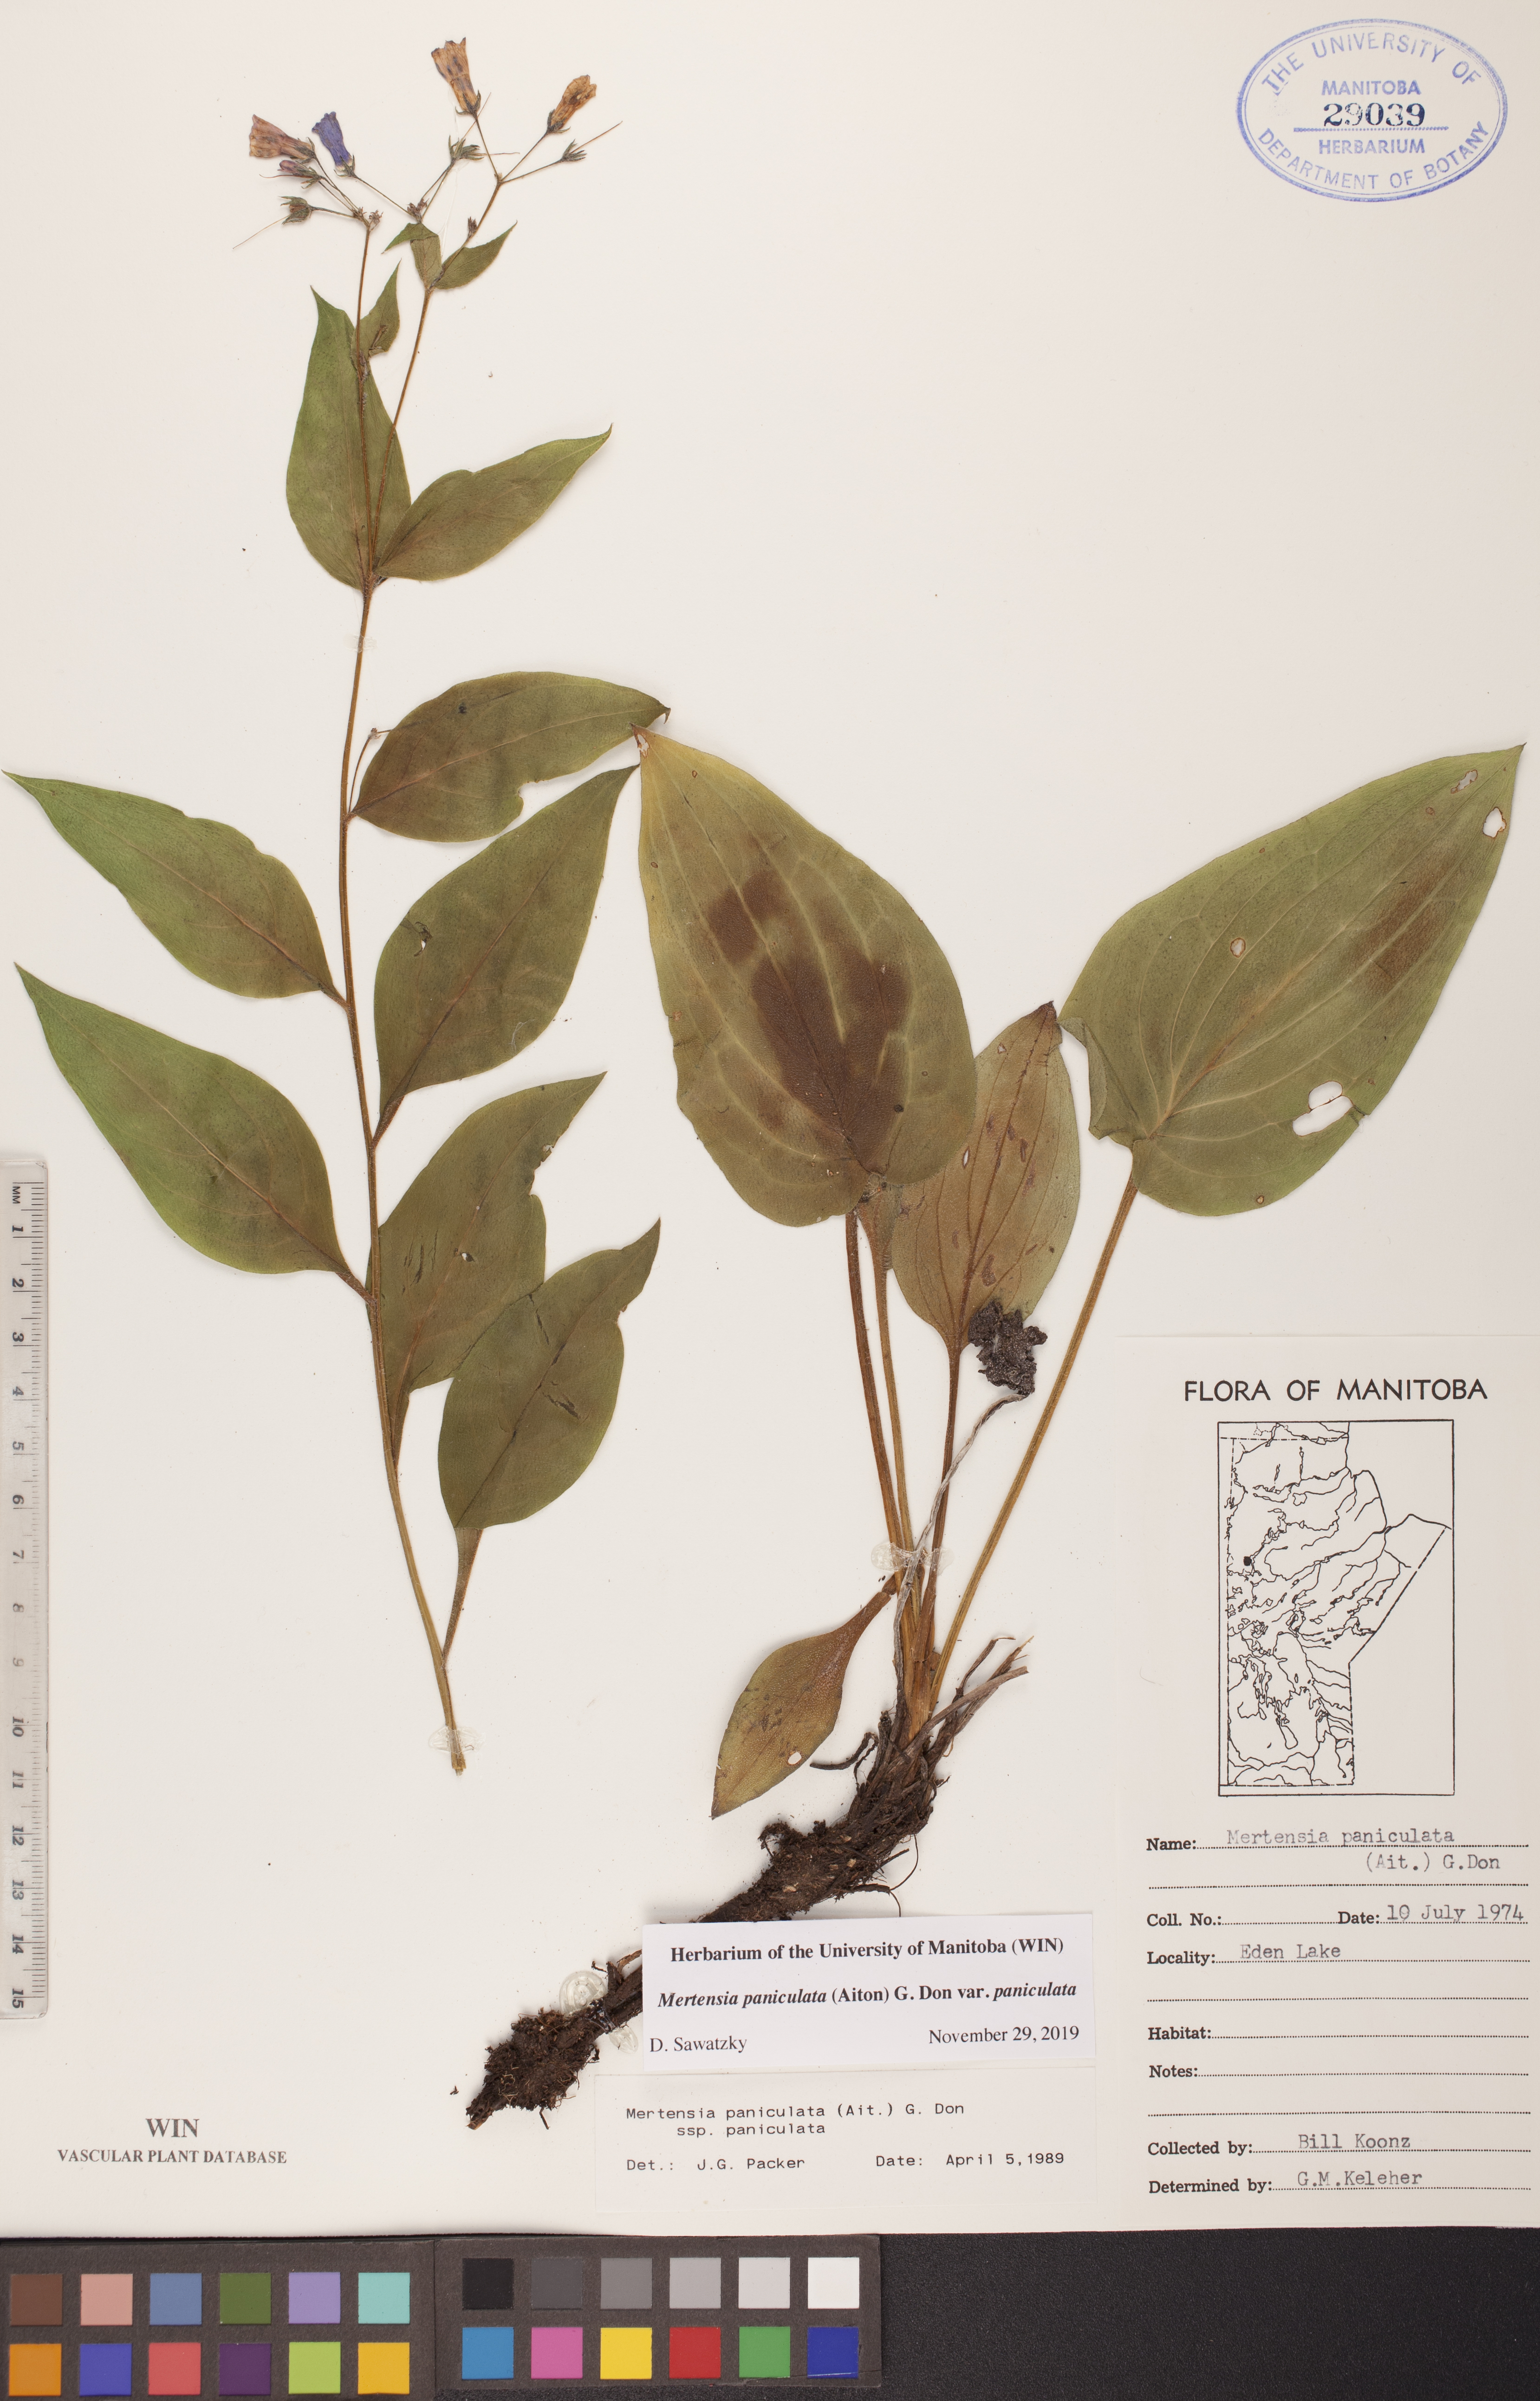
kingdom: Plantae
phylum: Tracheophyta
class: Magnoliopsida
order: Boraginales
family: Boraginaceae
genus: Mertensia
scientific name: Mertensia paniculata
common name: Panicled bluebells
